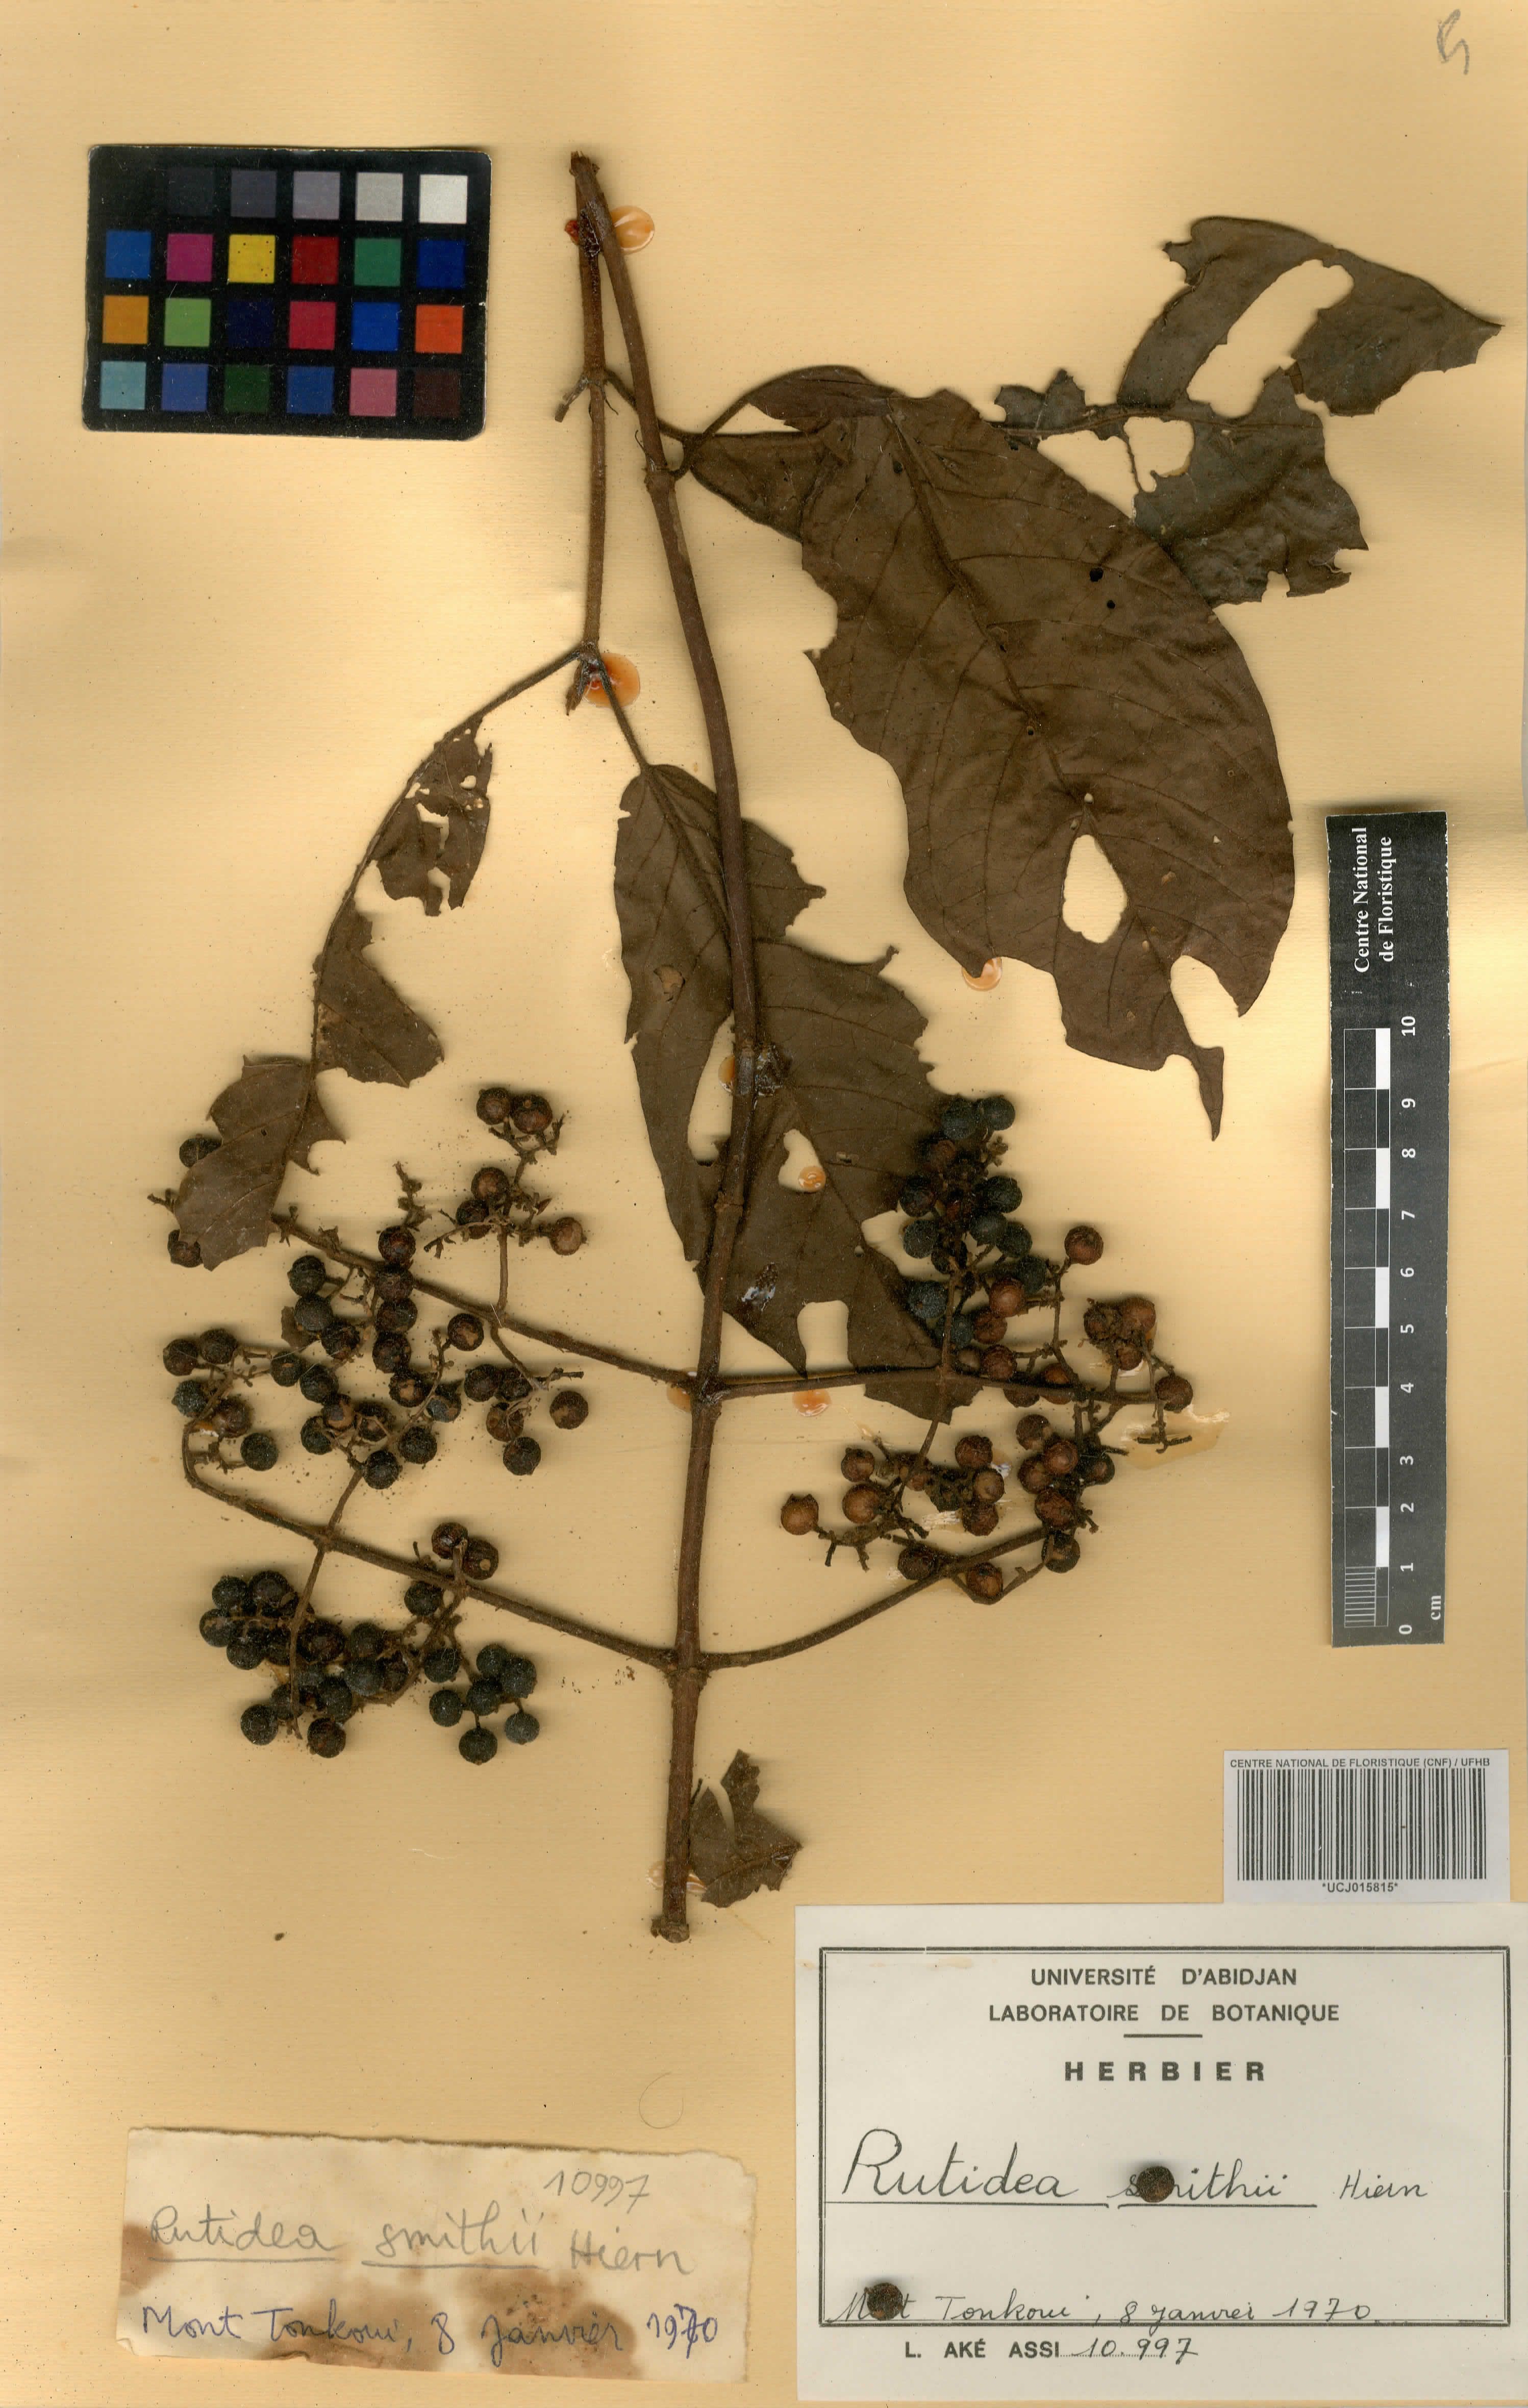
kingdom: Plantae
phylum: Tracheophyta
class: Magnoliopsida
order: Gentianales
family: Rubiaceae
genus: Rutidea
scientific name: Rutidea smithii
